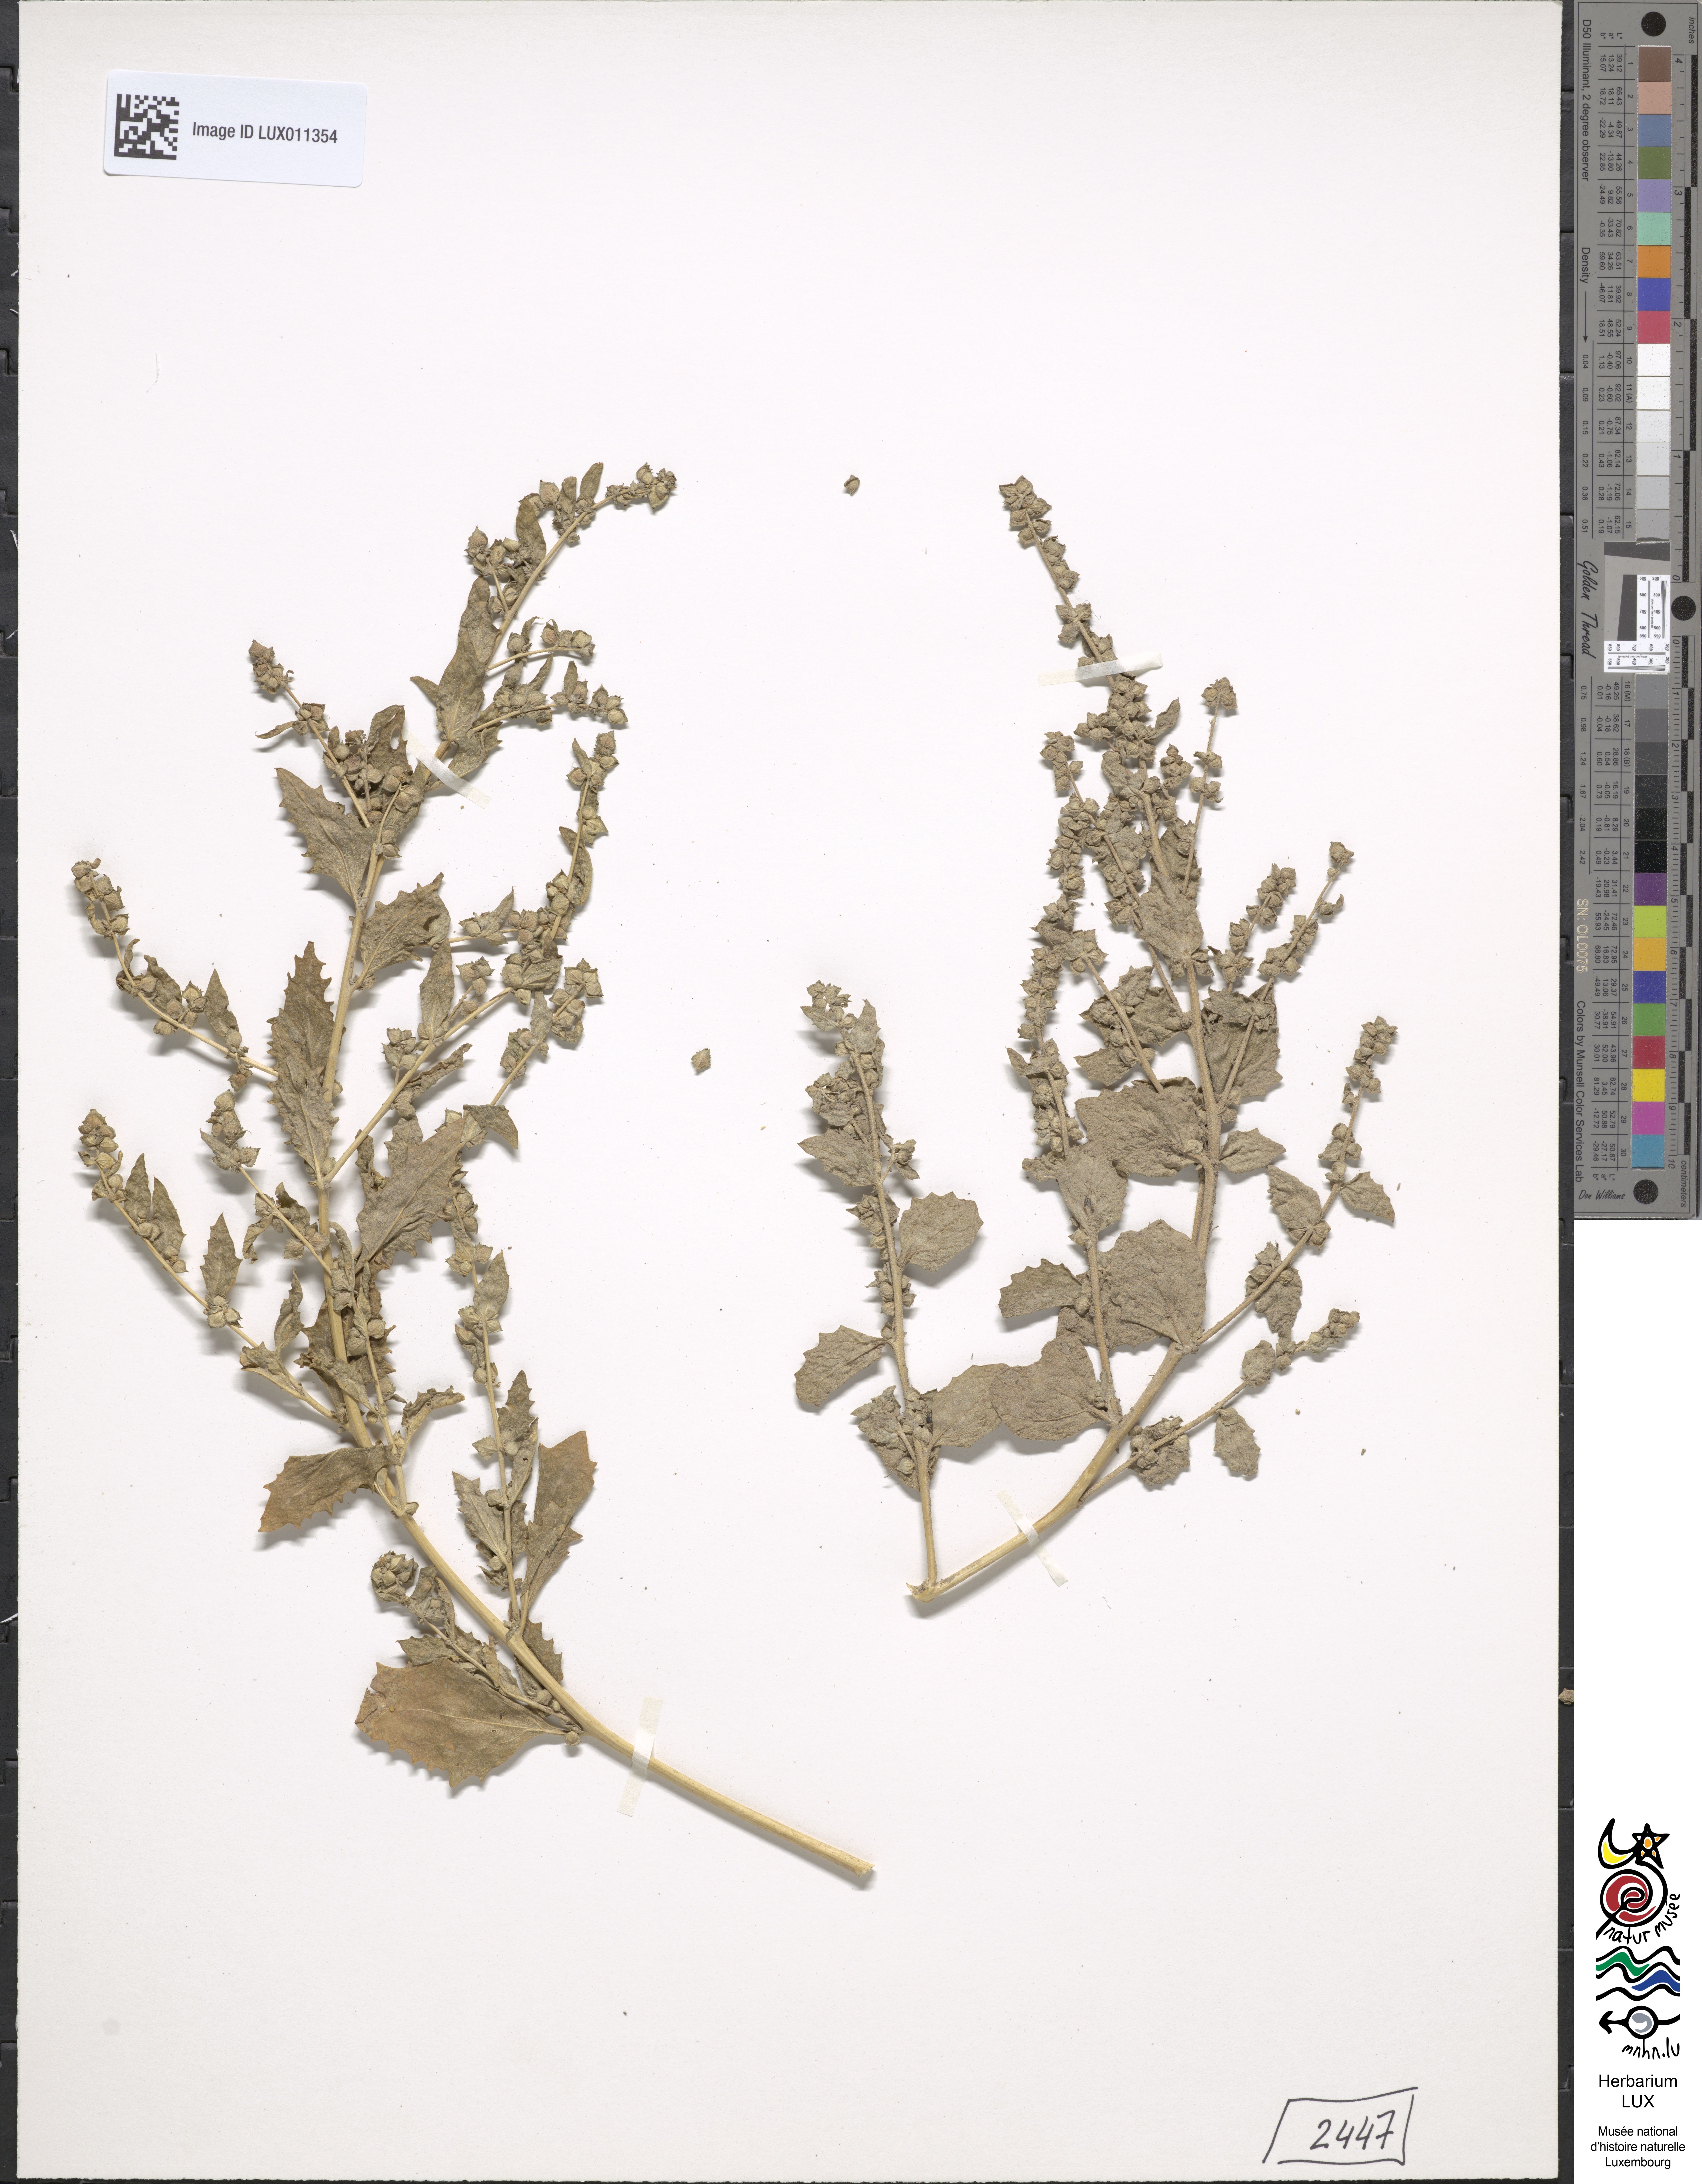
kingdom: Plantae
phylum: Tracheophyta
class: Magnoliopsida
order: Caryophyllales
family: Amaranthaceae
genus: Atriplex
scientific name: Atriplex rosea
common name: Tumbling saltweed
